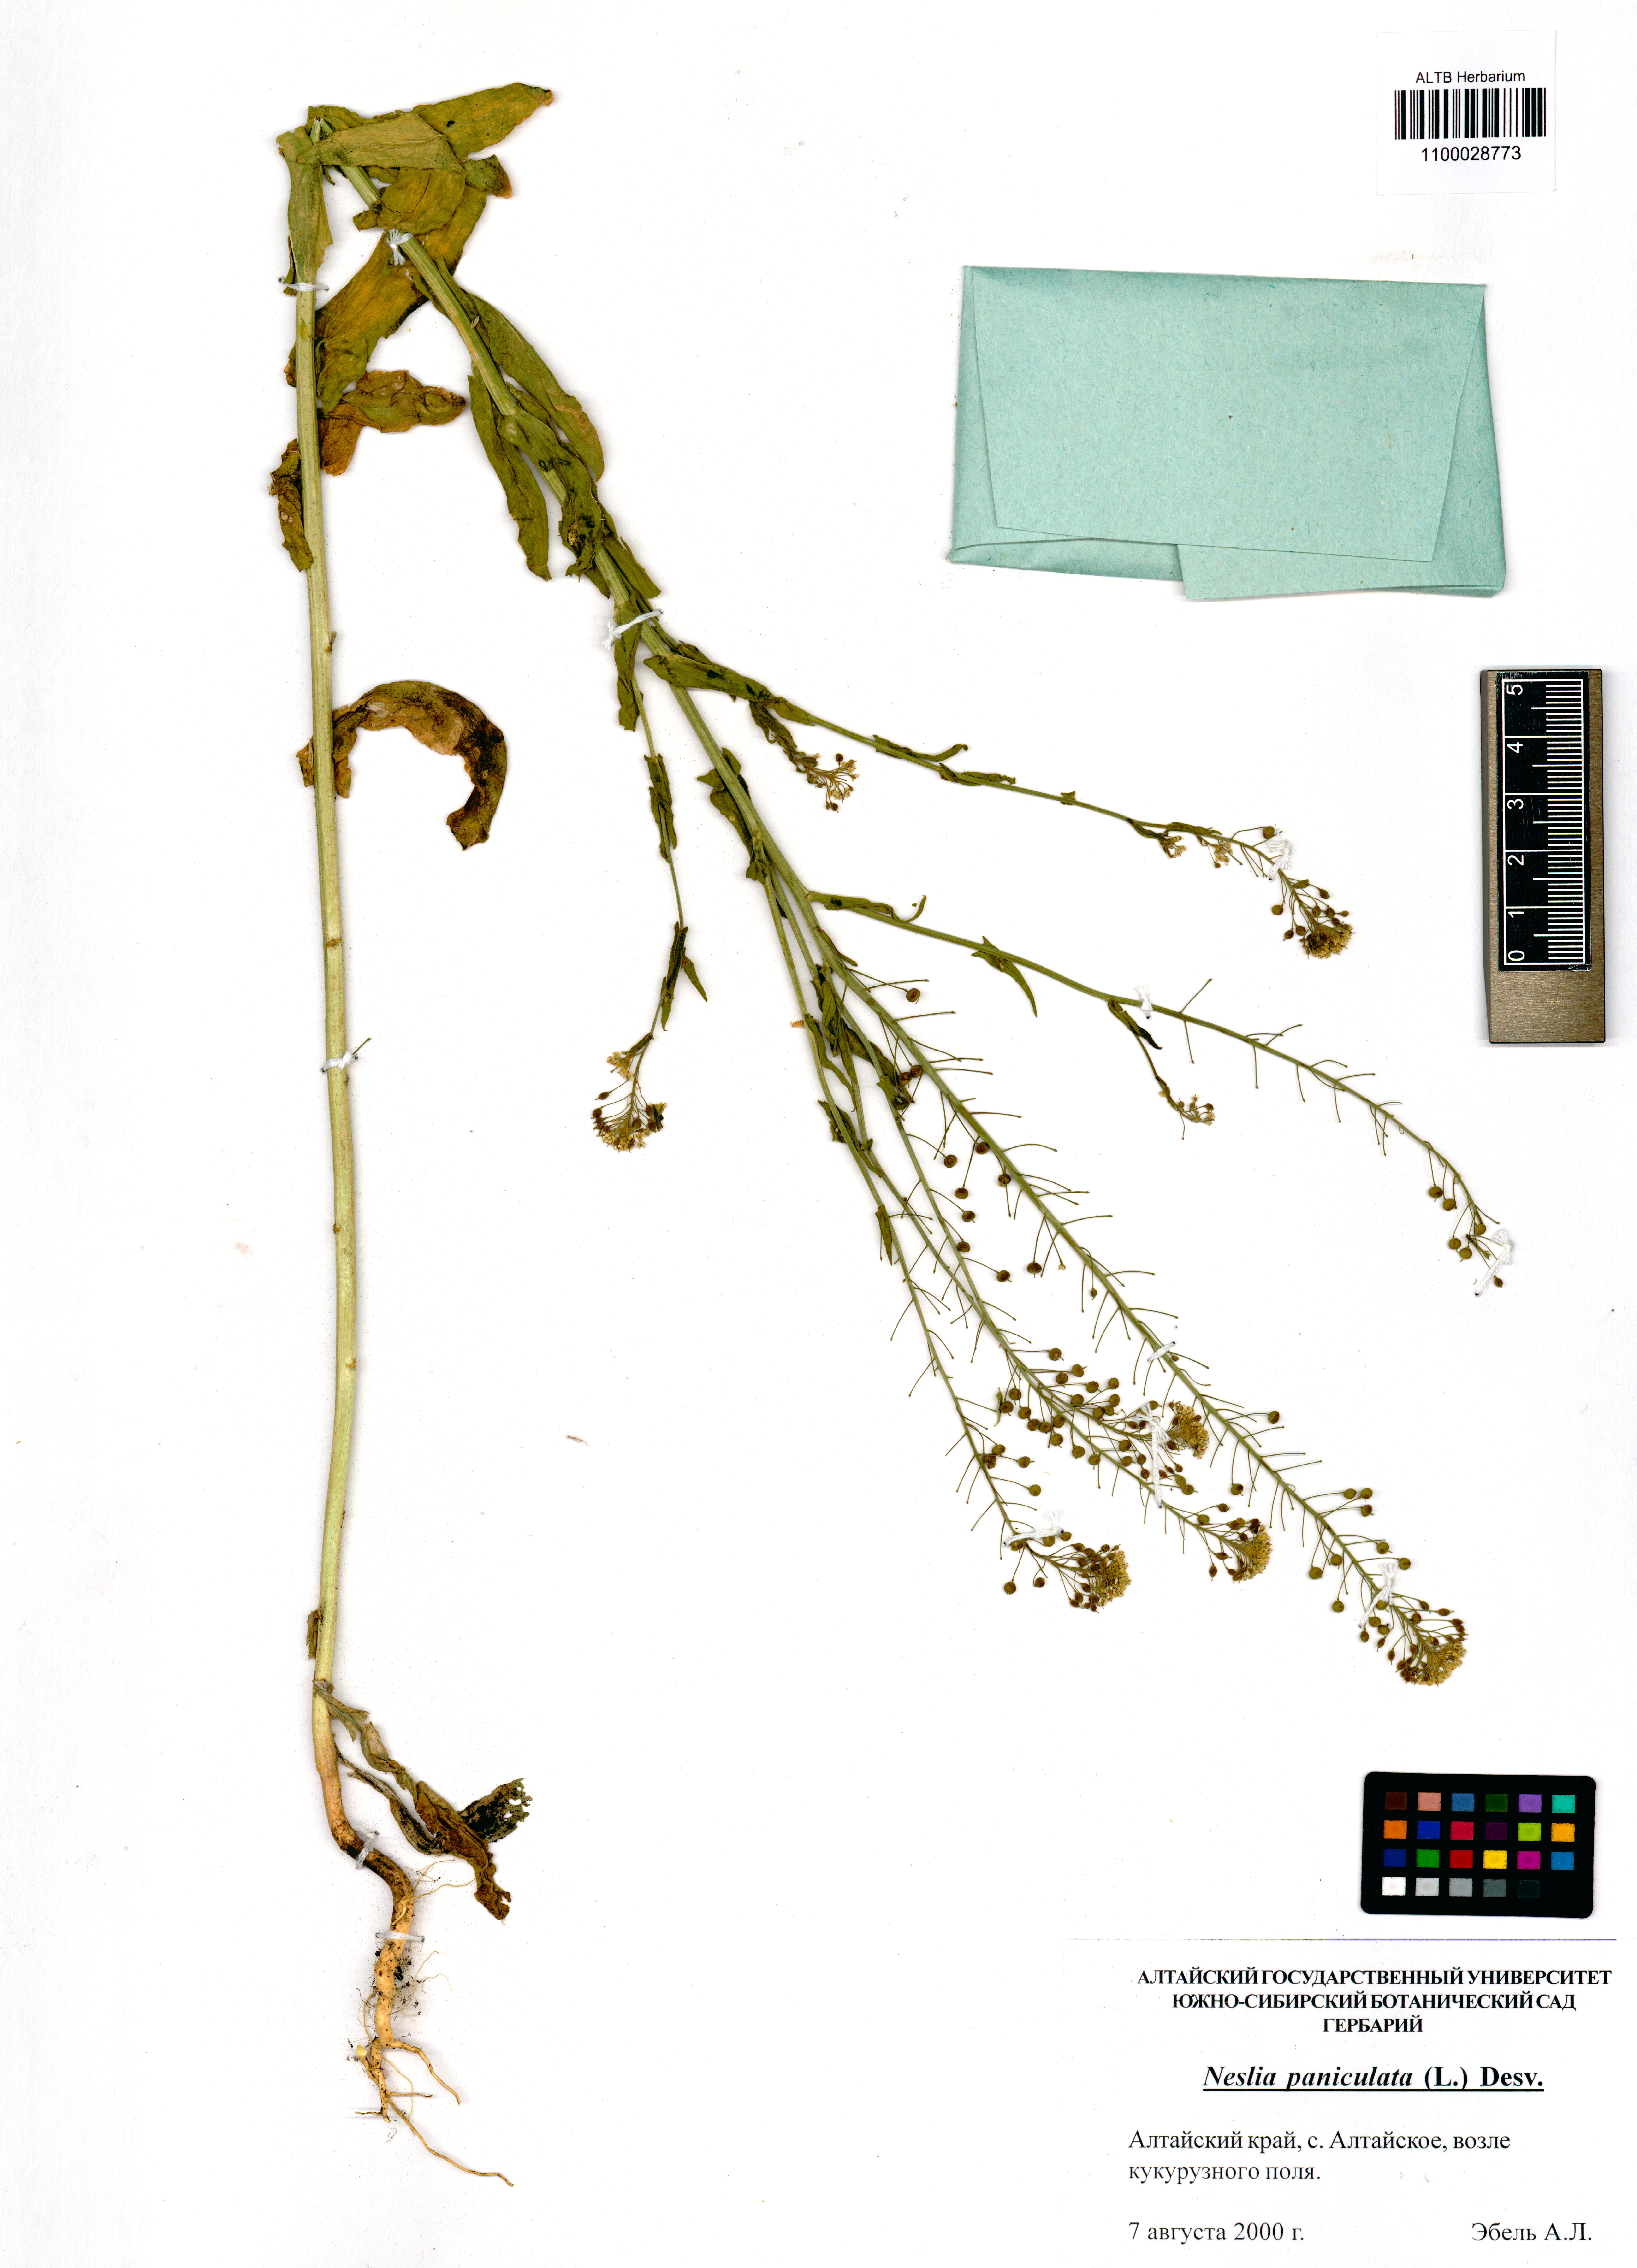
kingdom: Plantae
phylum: Tracheophyta
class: Magnoliopsida
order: Brassicales
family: Brassicaceae
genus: Neslia
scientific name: Neslia paniculata
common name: Ball mustard
